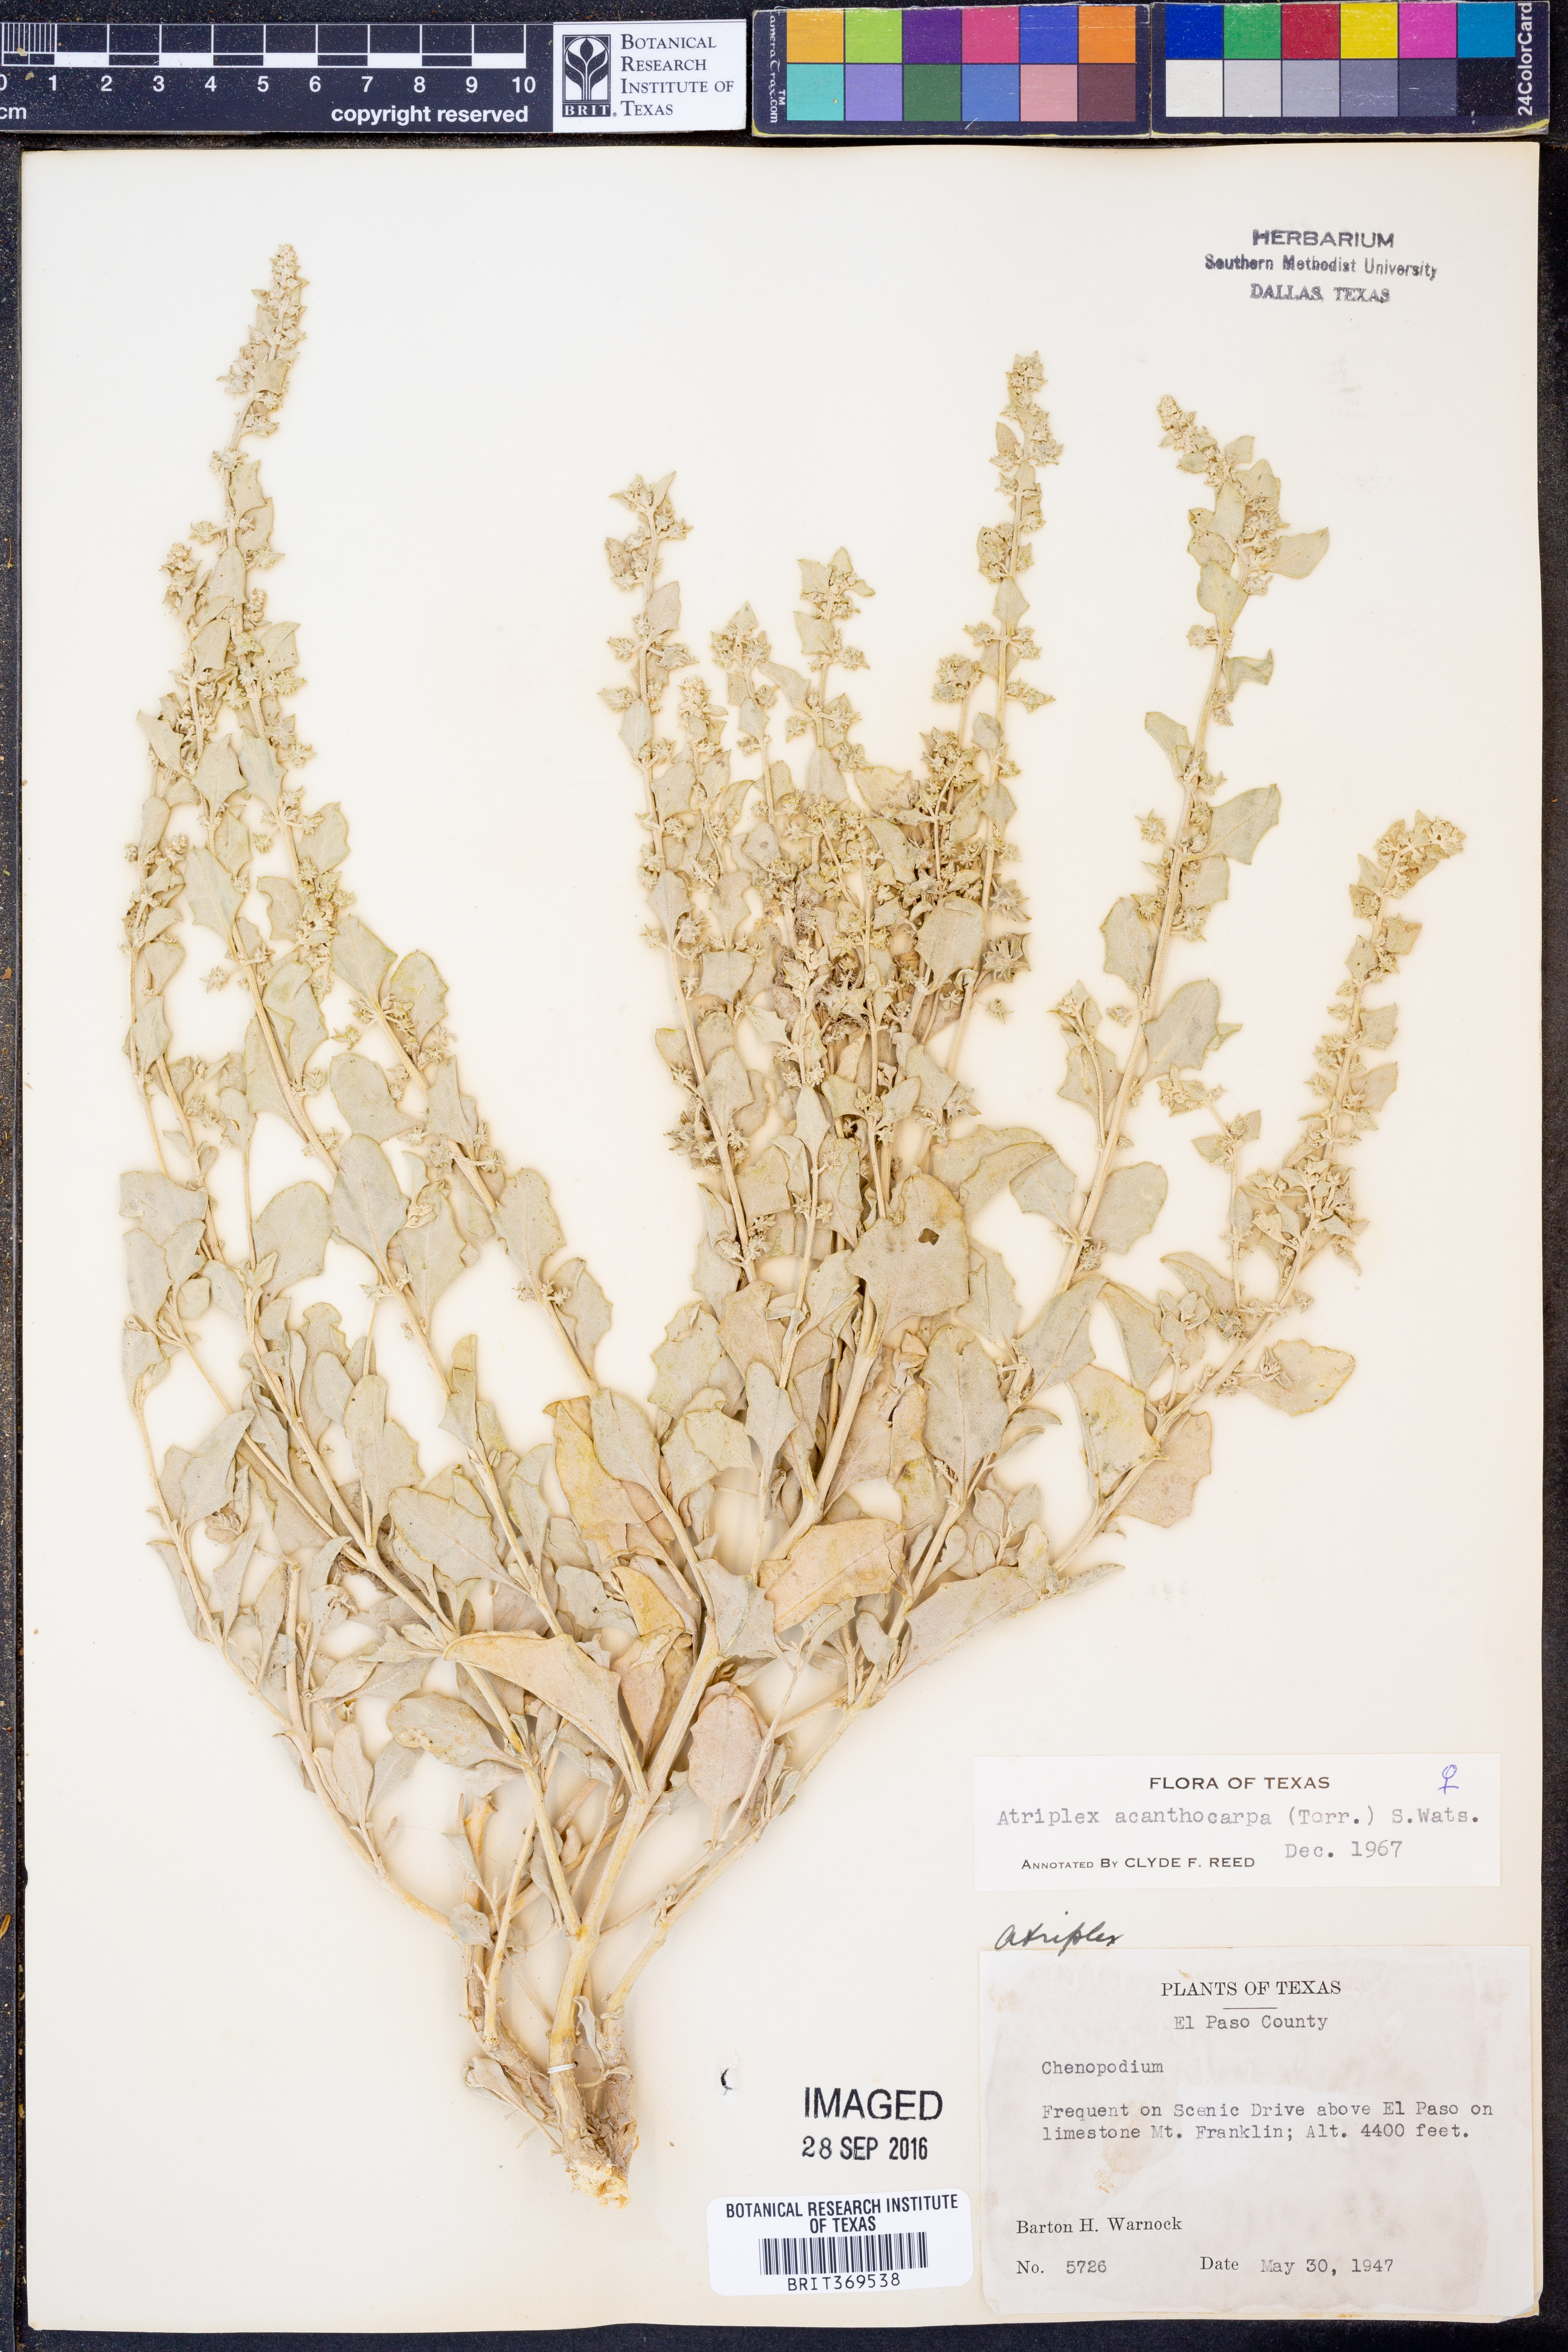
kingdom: Plantae
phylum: Tracheophyta
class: Magnoliopsida
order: Caryophyllales
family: Amaranthaceae
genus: Atriplex
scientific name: Atriplex acanthocarpa
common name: Burscale
